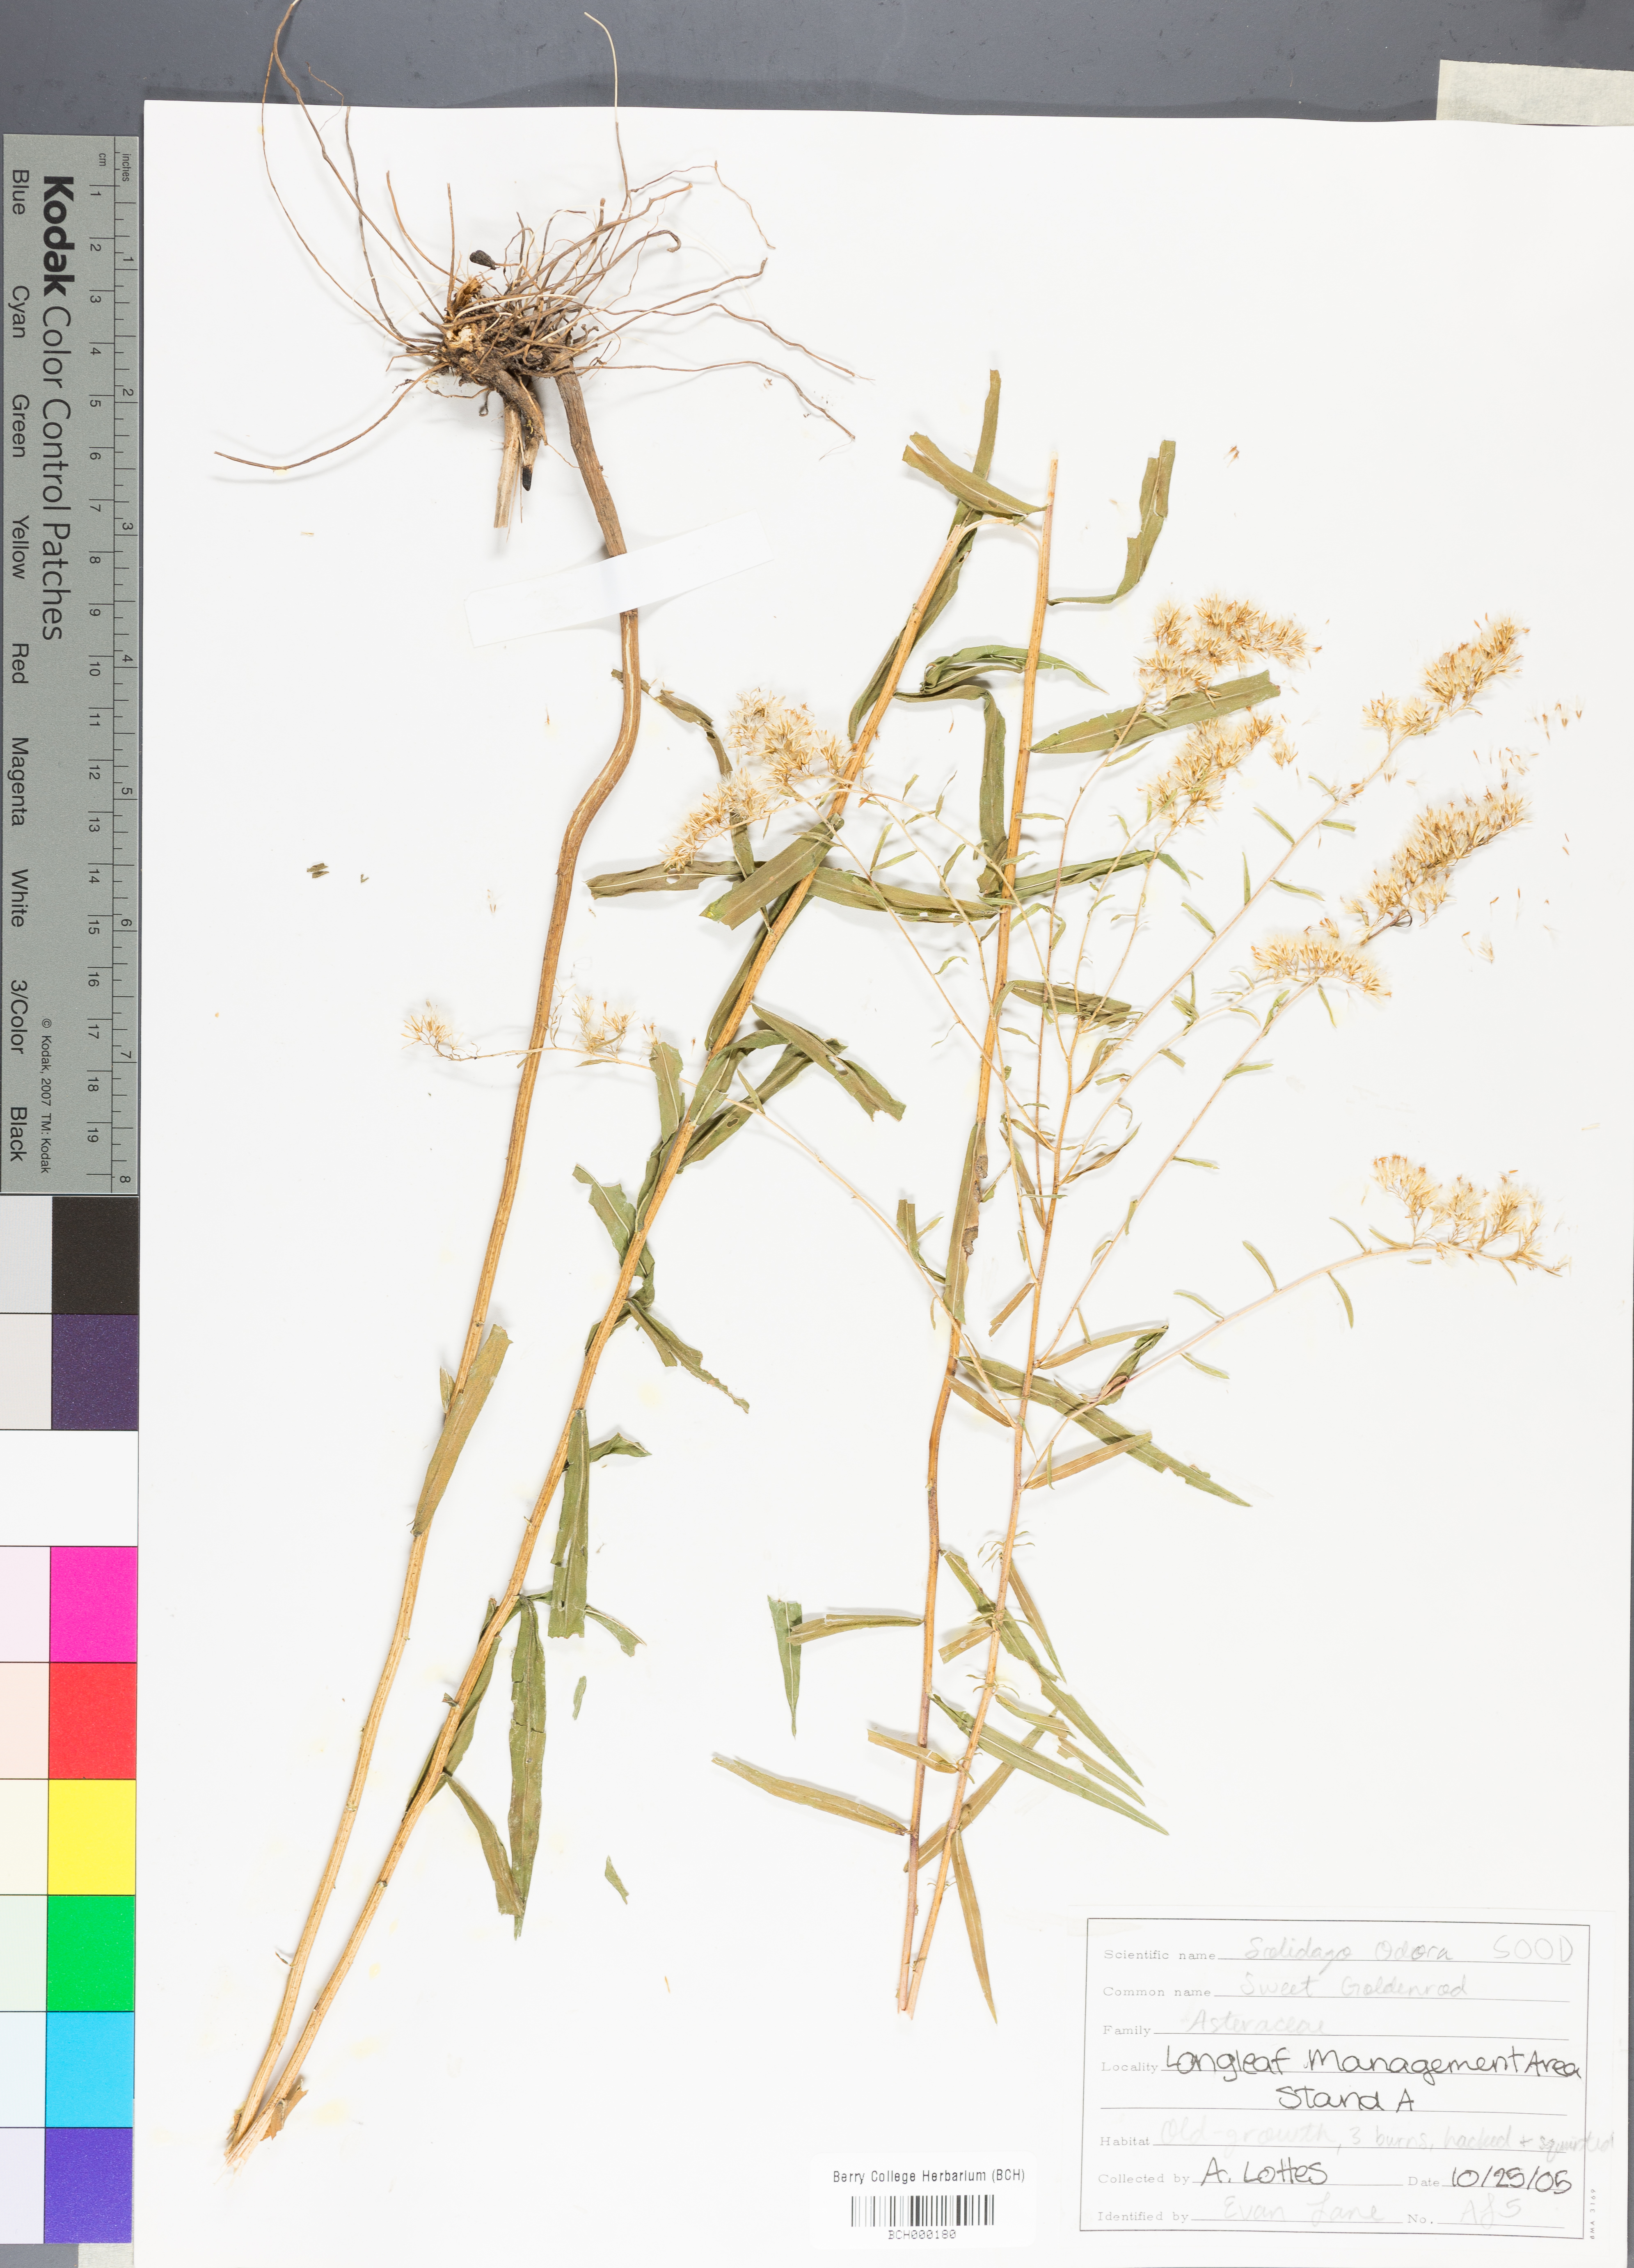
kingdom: Plantae
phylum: Tracheophyta
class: Magnoliopsida
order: Asterales
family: Asteraceae
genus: Solidago
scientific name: Solidago odora
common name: Anise-scented goldenrod
